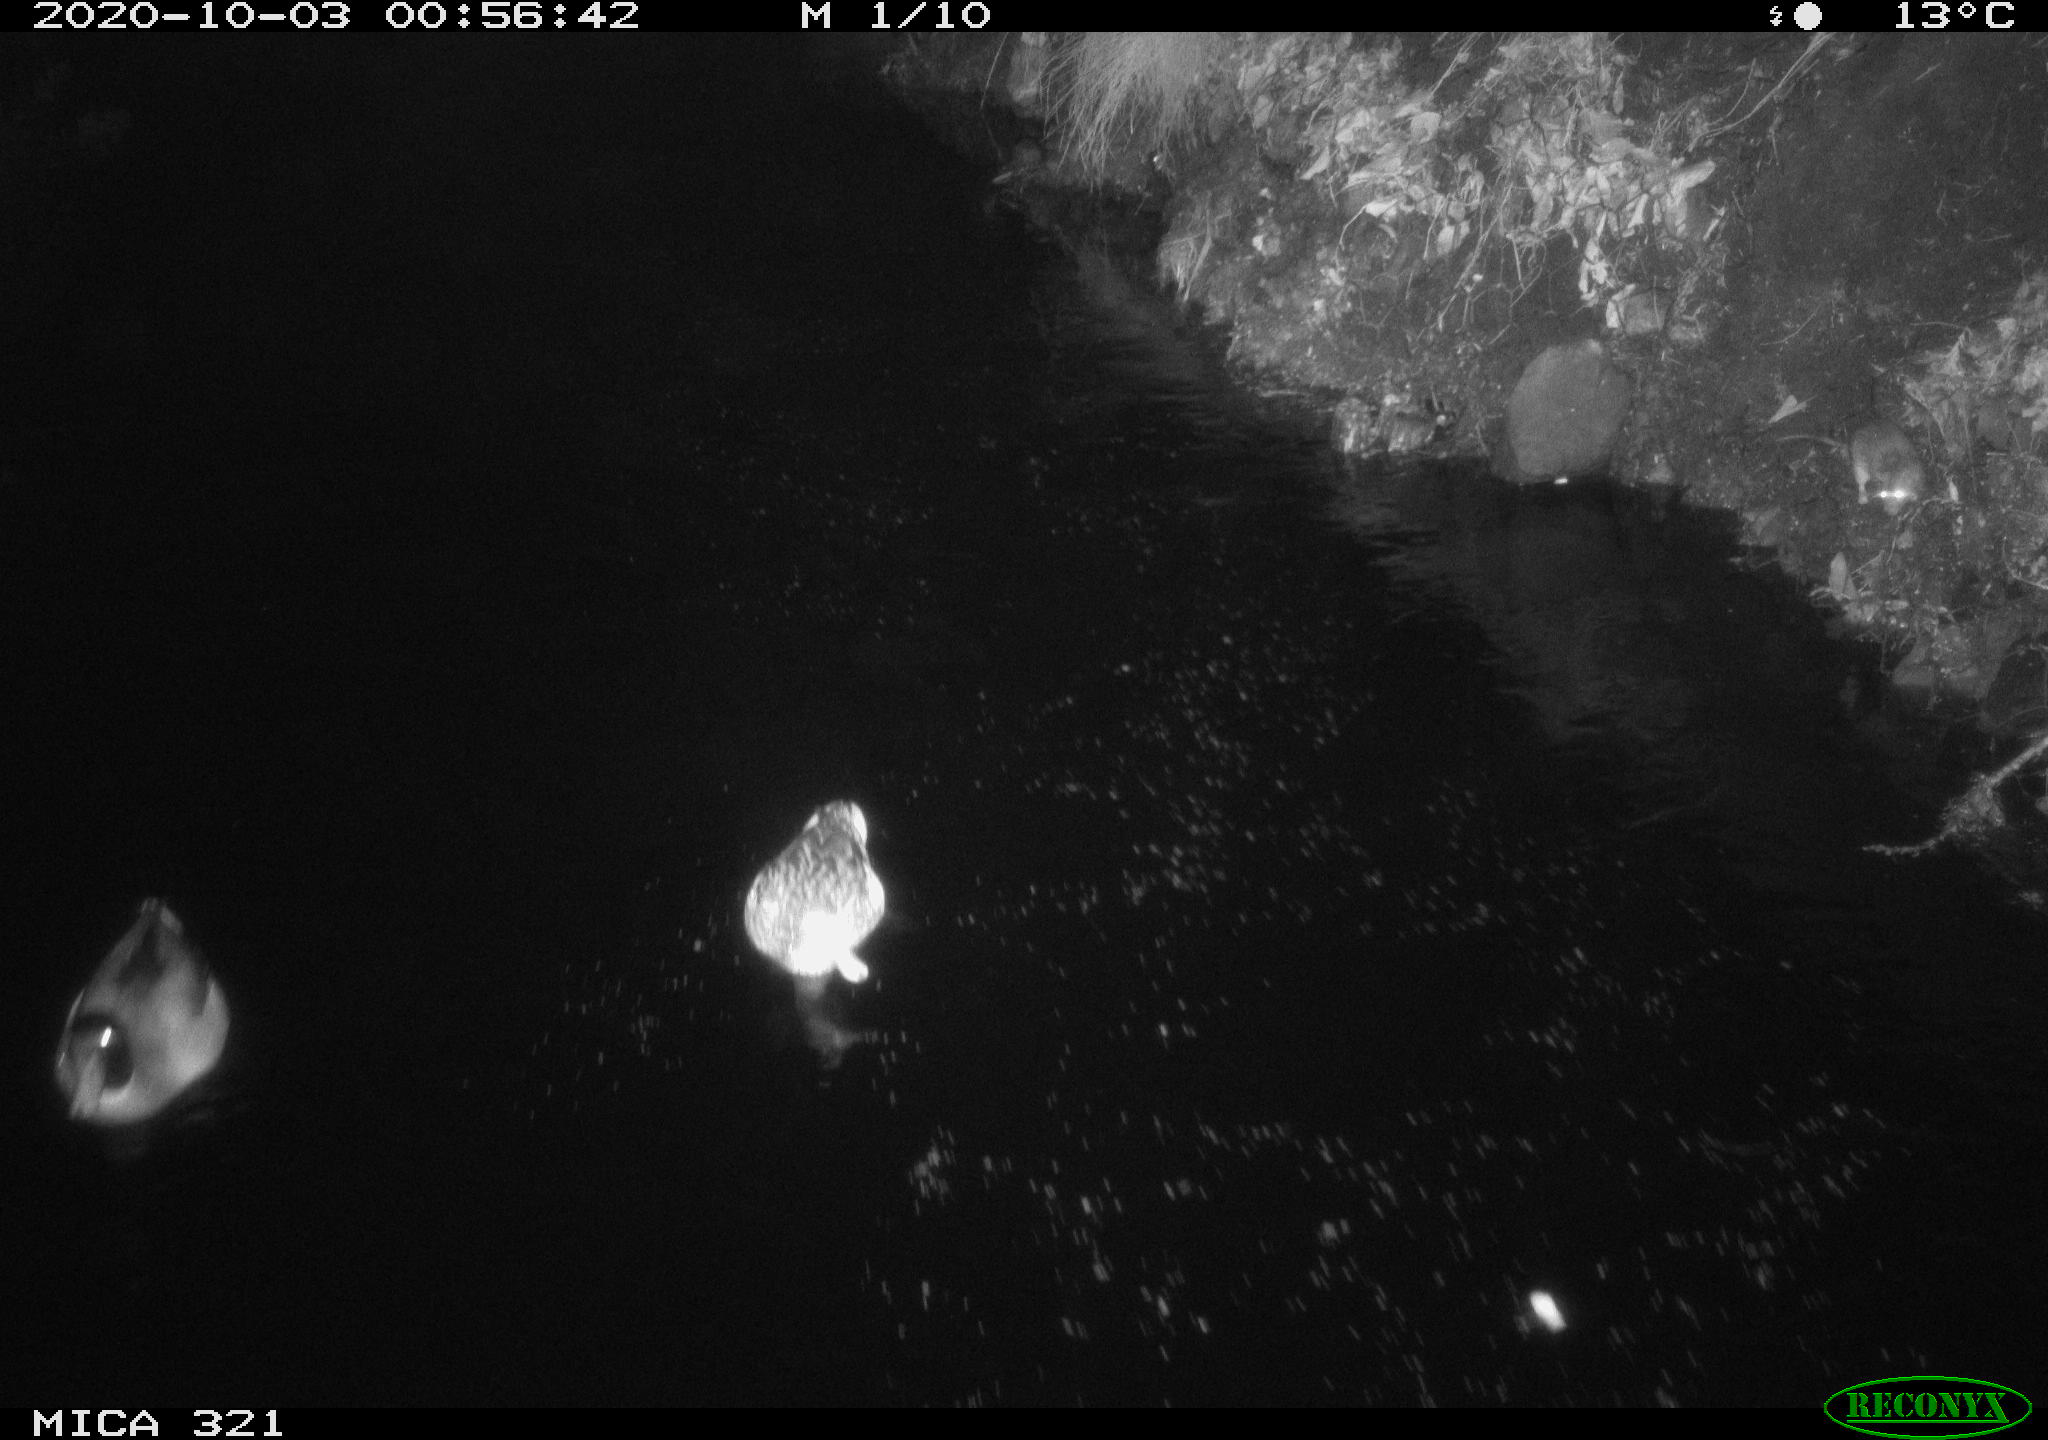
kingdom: Animalia
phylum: Chordata
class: Aves
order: Anseriformes
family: Anatidae
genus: Anas
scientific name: Anas platyrhynchos
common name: Mallard
